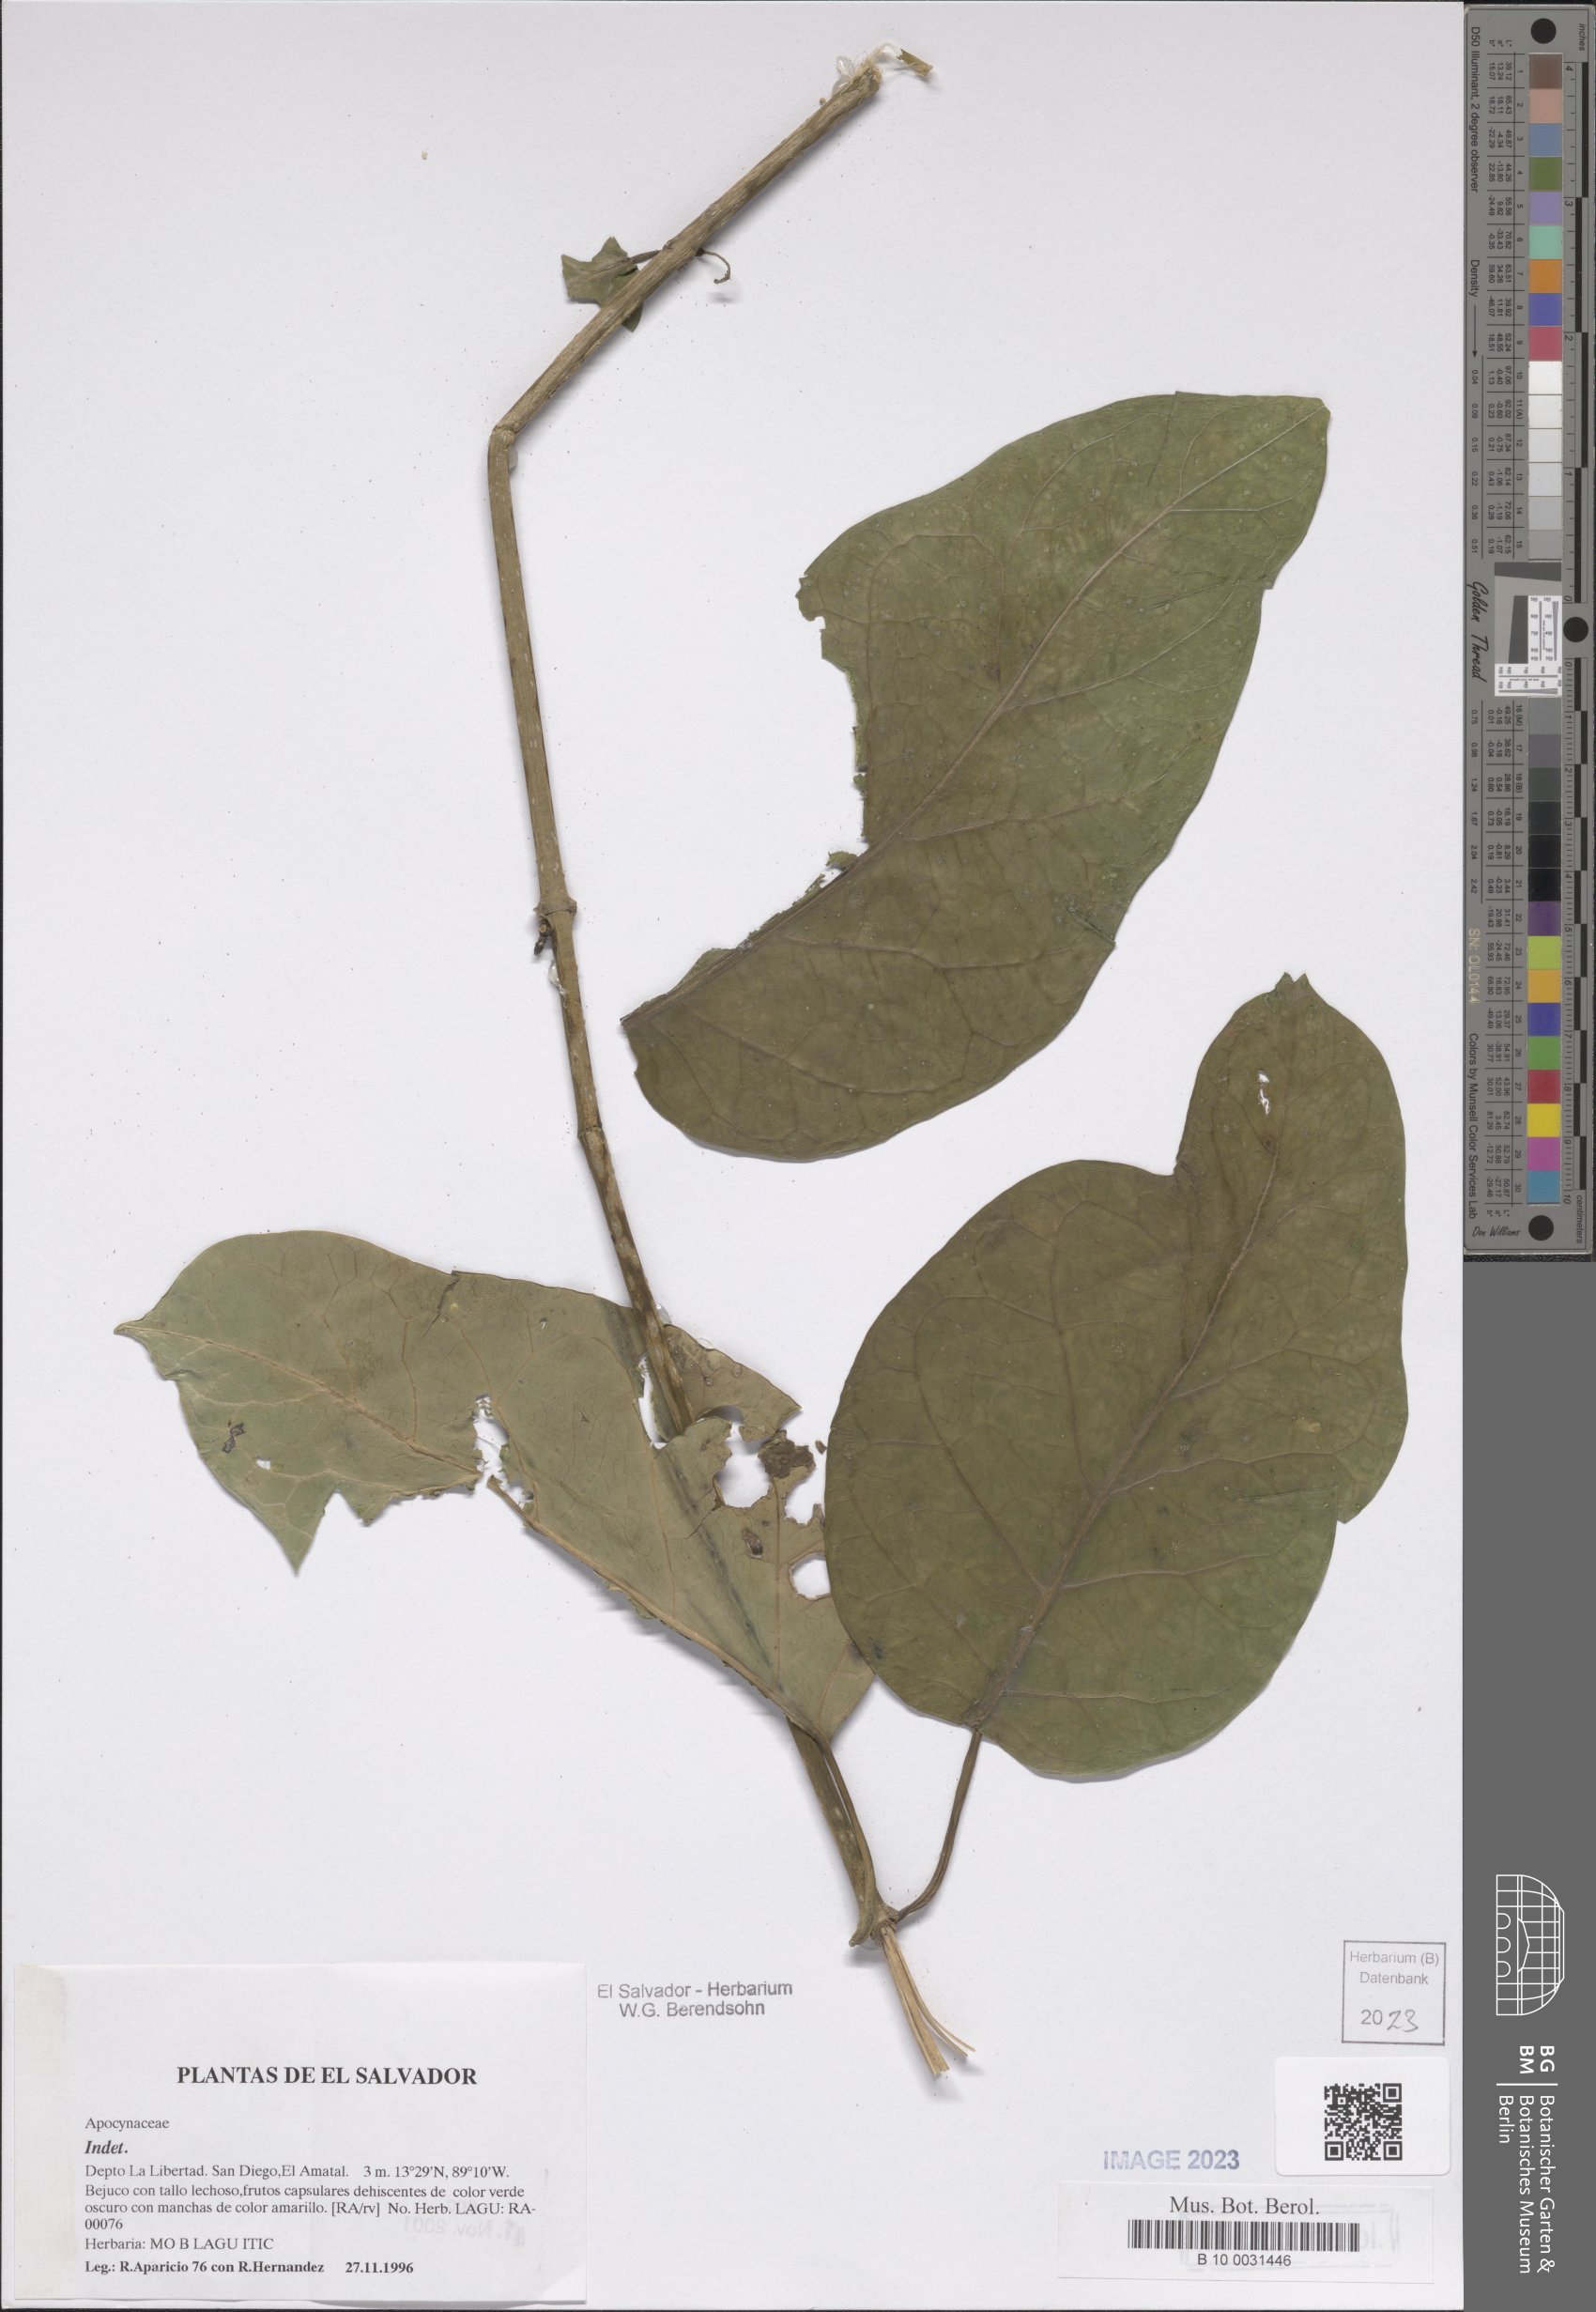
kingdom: Plantae
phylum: Tracheophyta
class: Magnoliopsida
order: Gentianales
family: Apocynaceae
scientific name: Apocynaceae
